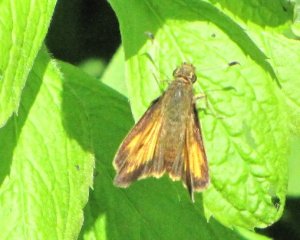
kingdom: Animalia
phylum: Arthropoda
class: Insecta
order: Lepidoptera
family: Hesperiidae
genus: Lon
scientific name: Lon hobomok
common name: Hobomok Skipper
